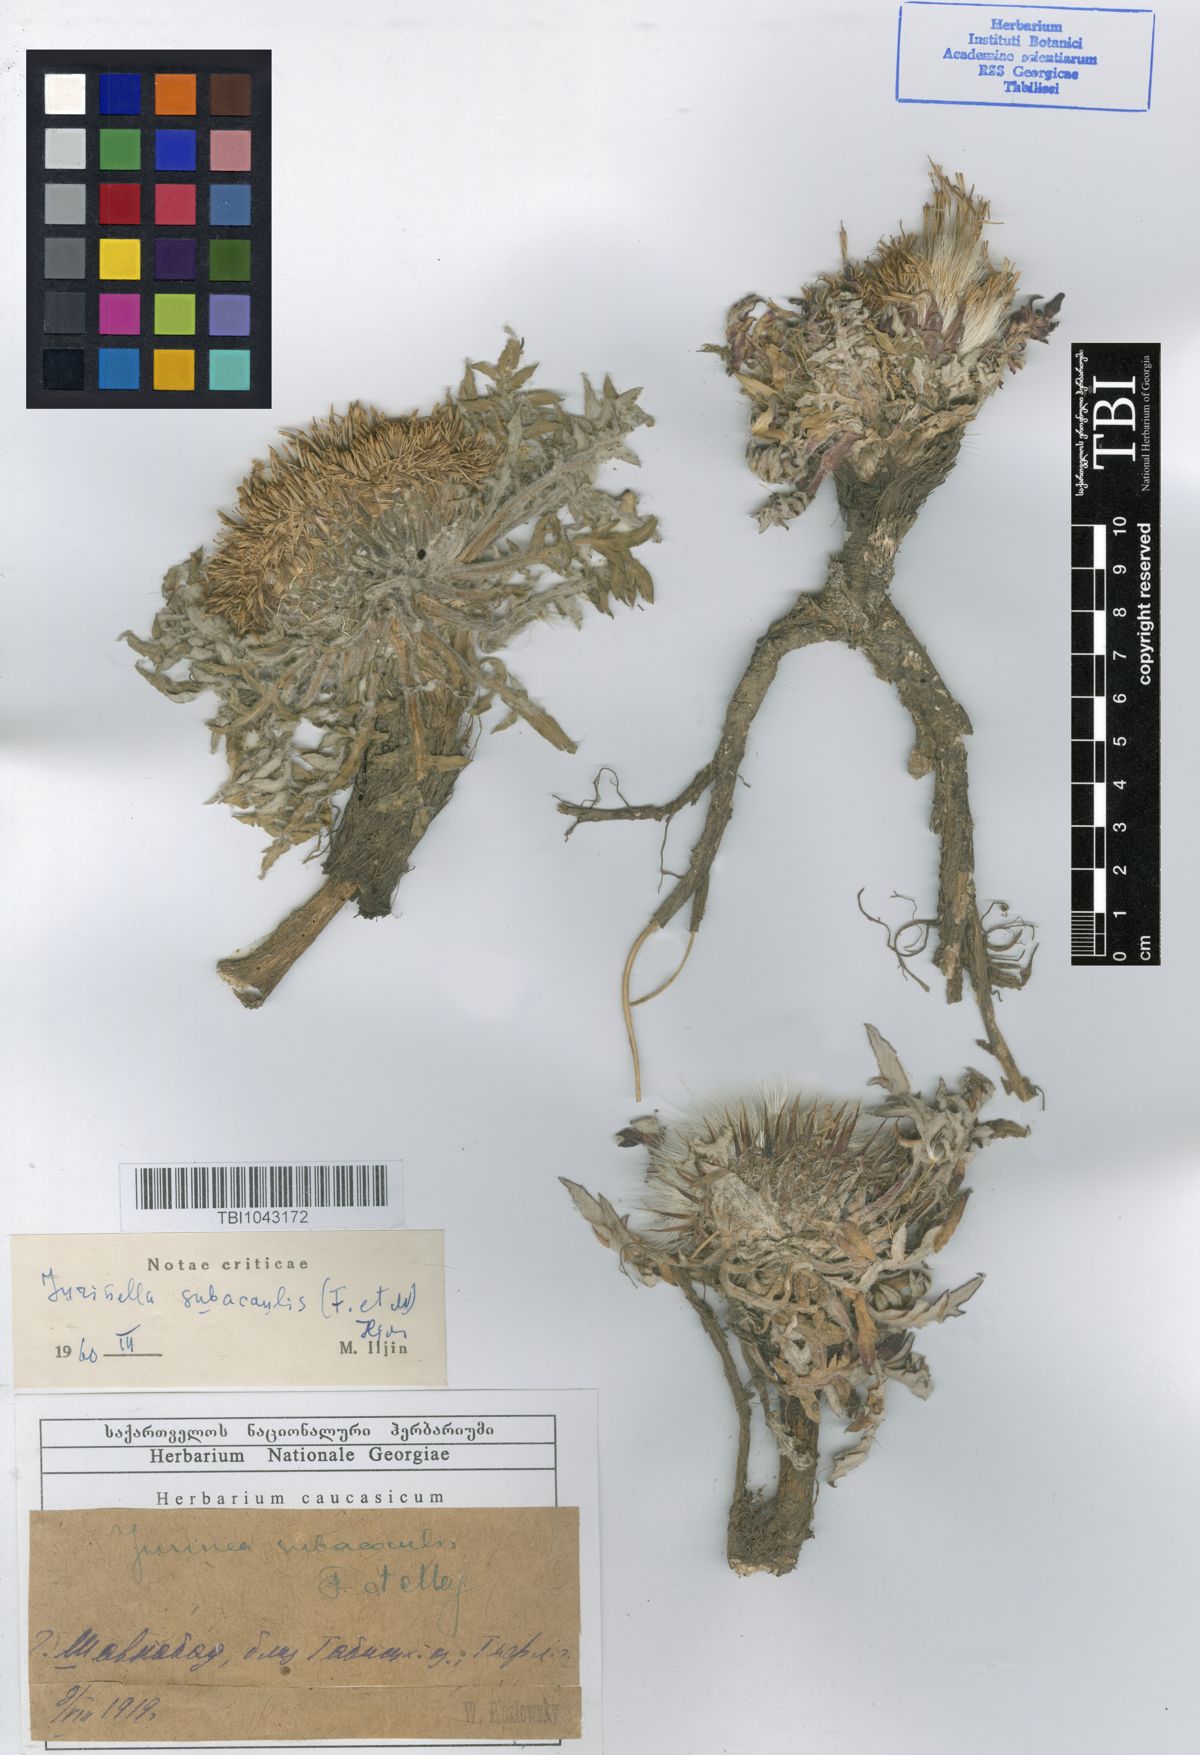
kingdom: Plantae
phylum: Tracheophyta
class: Magnoliopsida
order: Asterales
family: Asteraceae
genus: Jurinea
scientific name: Jurinea moschus
